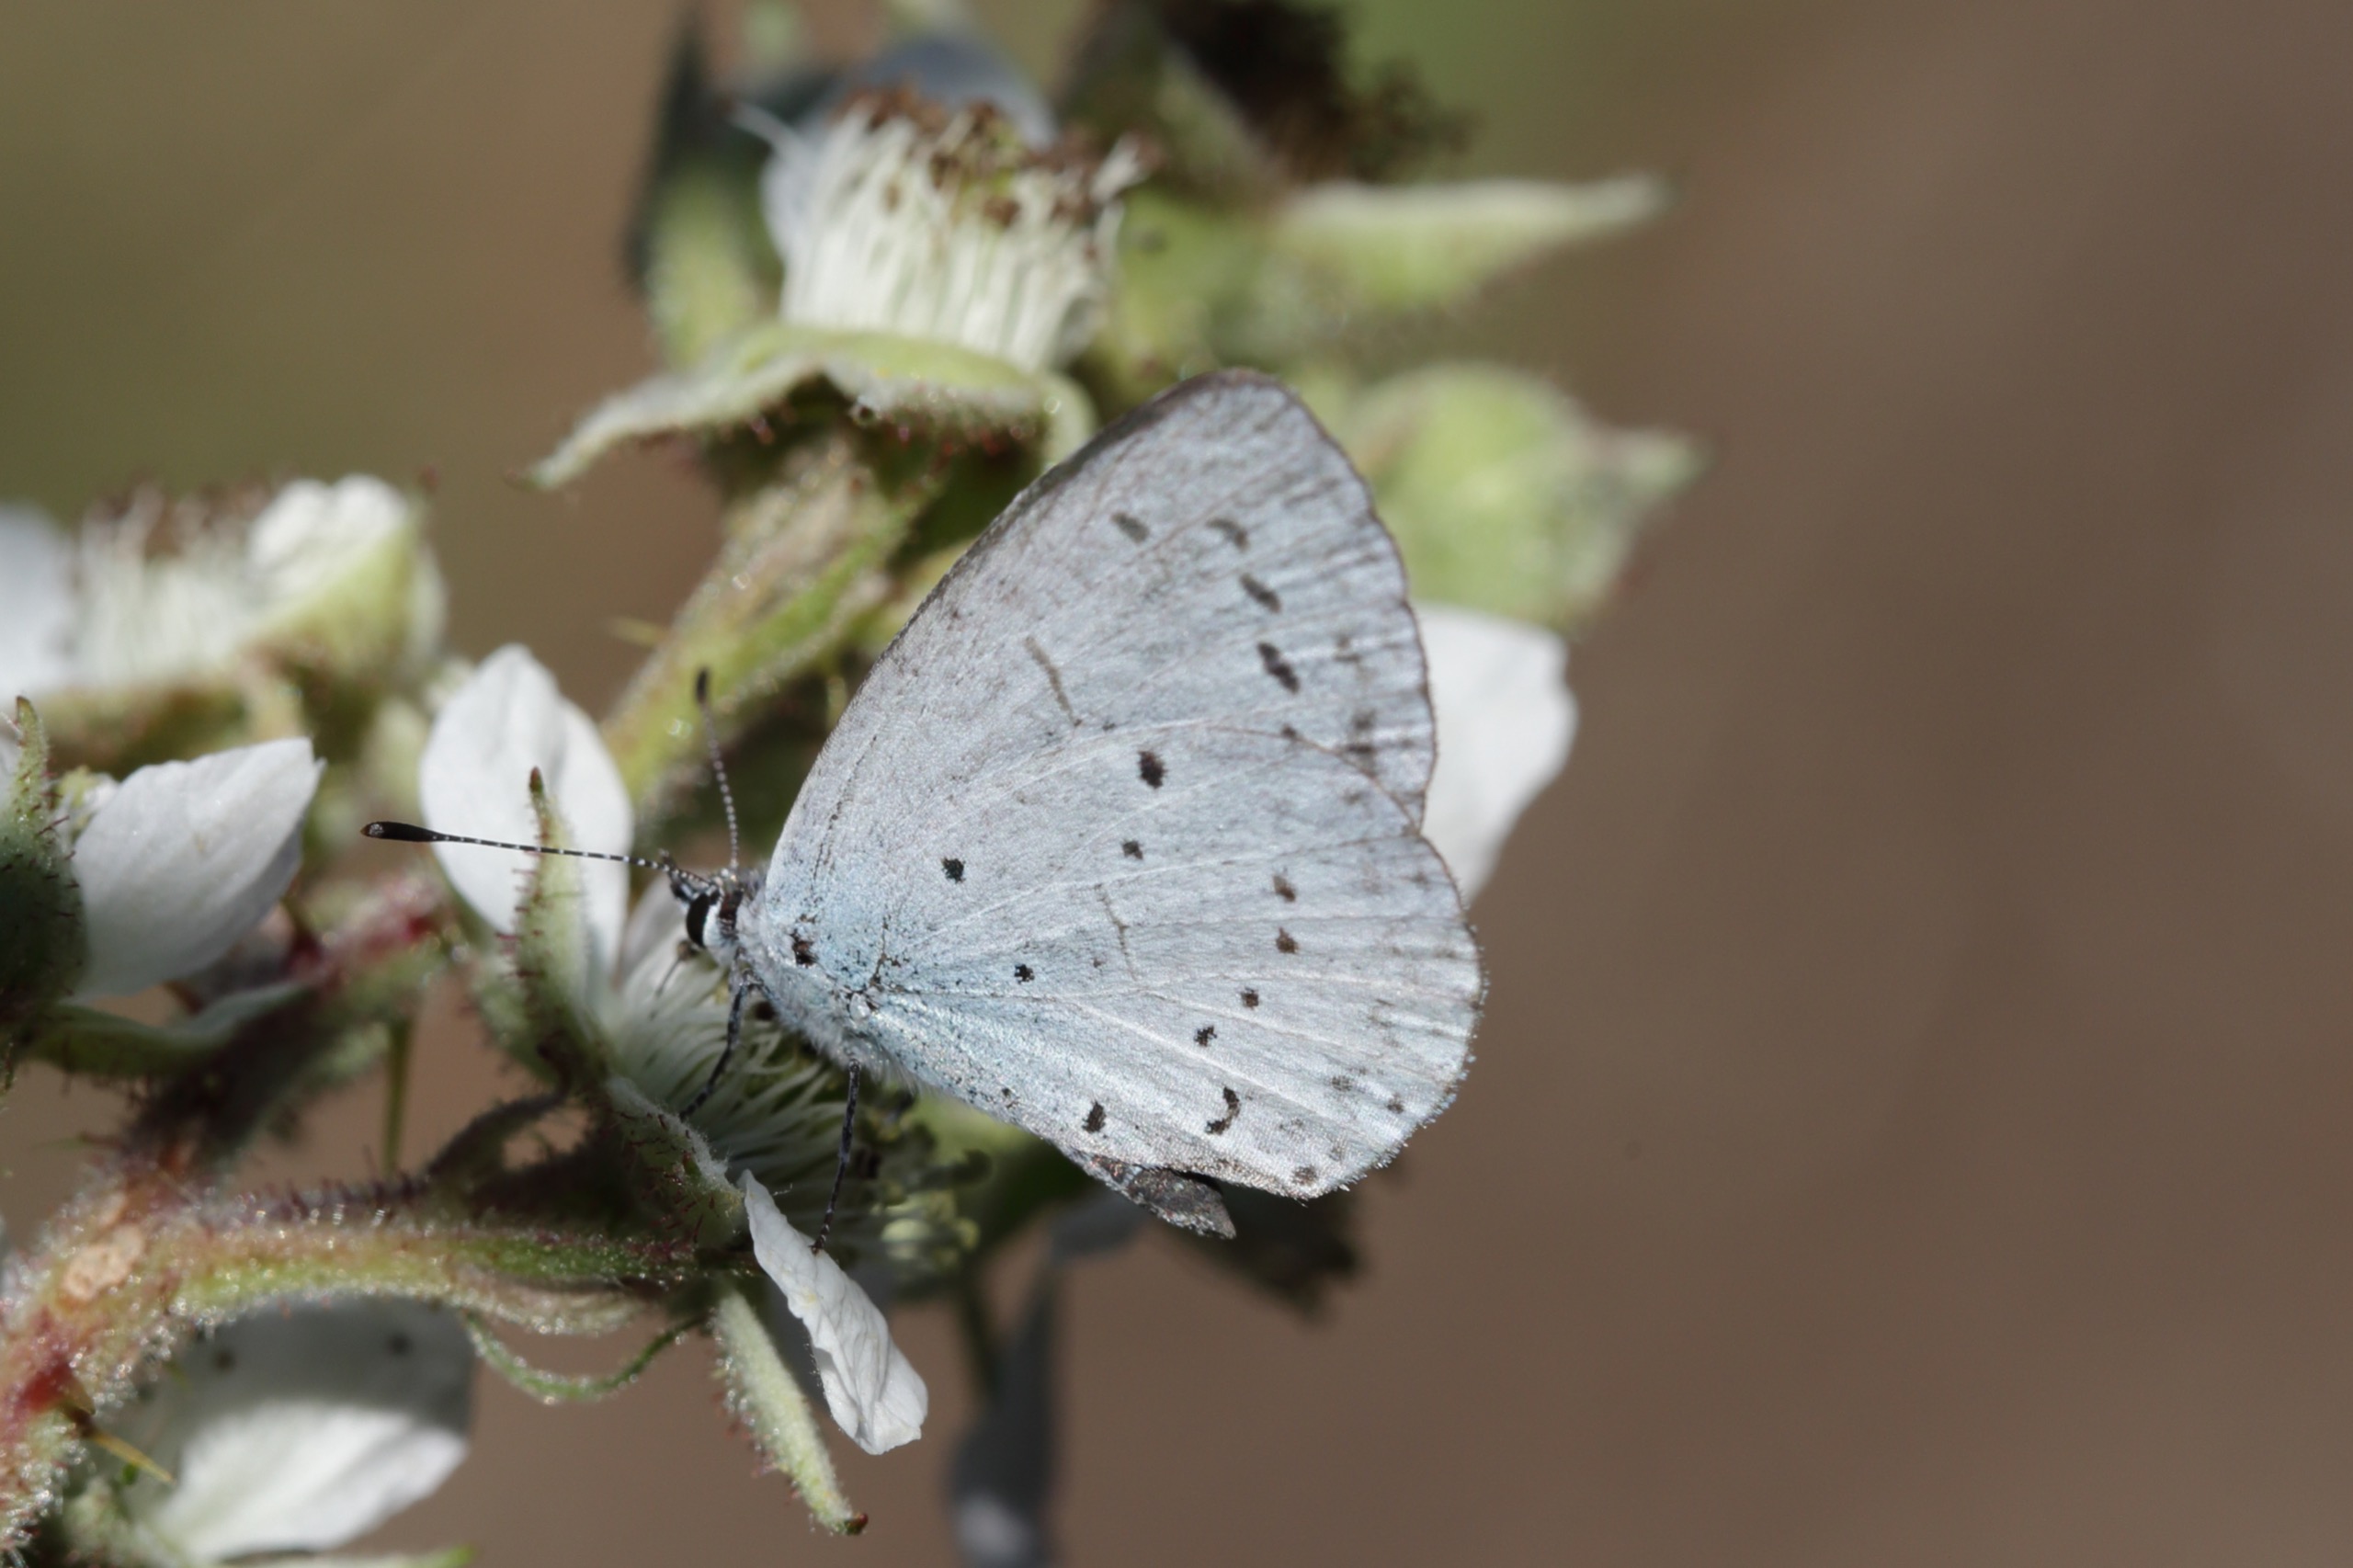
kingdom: Animalia
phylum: Arthropoda
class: Insecta
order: Lepidoptera
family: Lycaenidae
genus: Celastrina
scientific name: Celastrina argiolus
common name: Skovblåfugl
